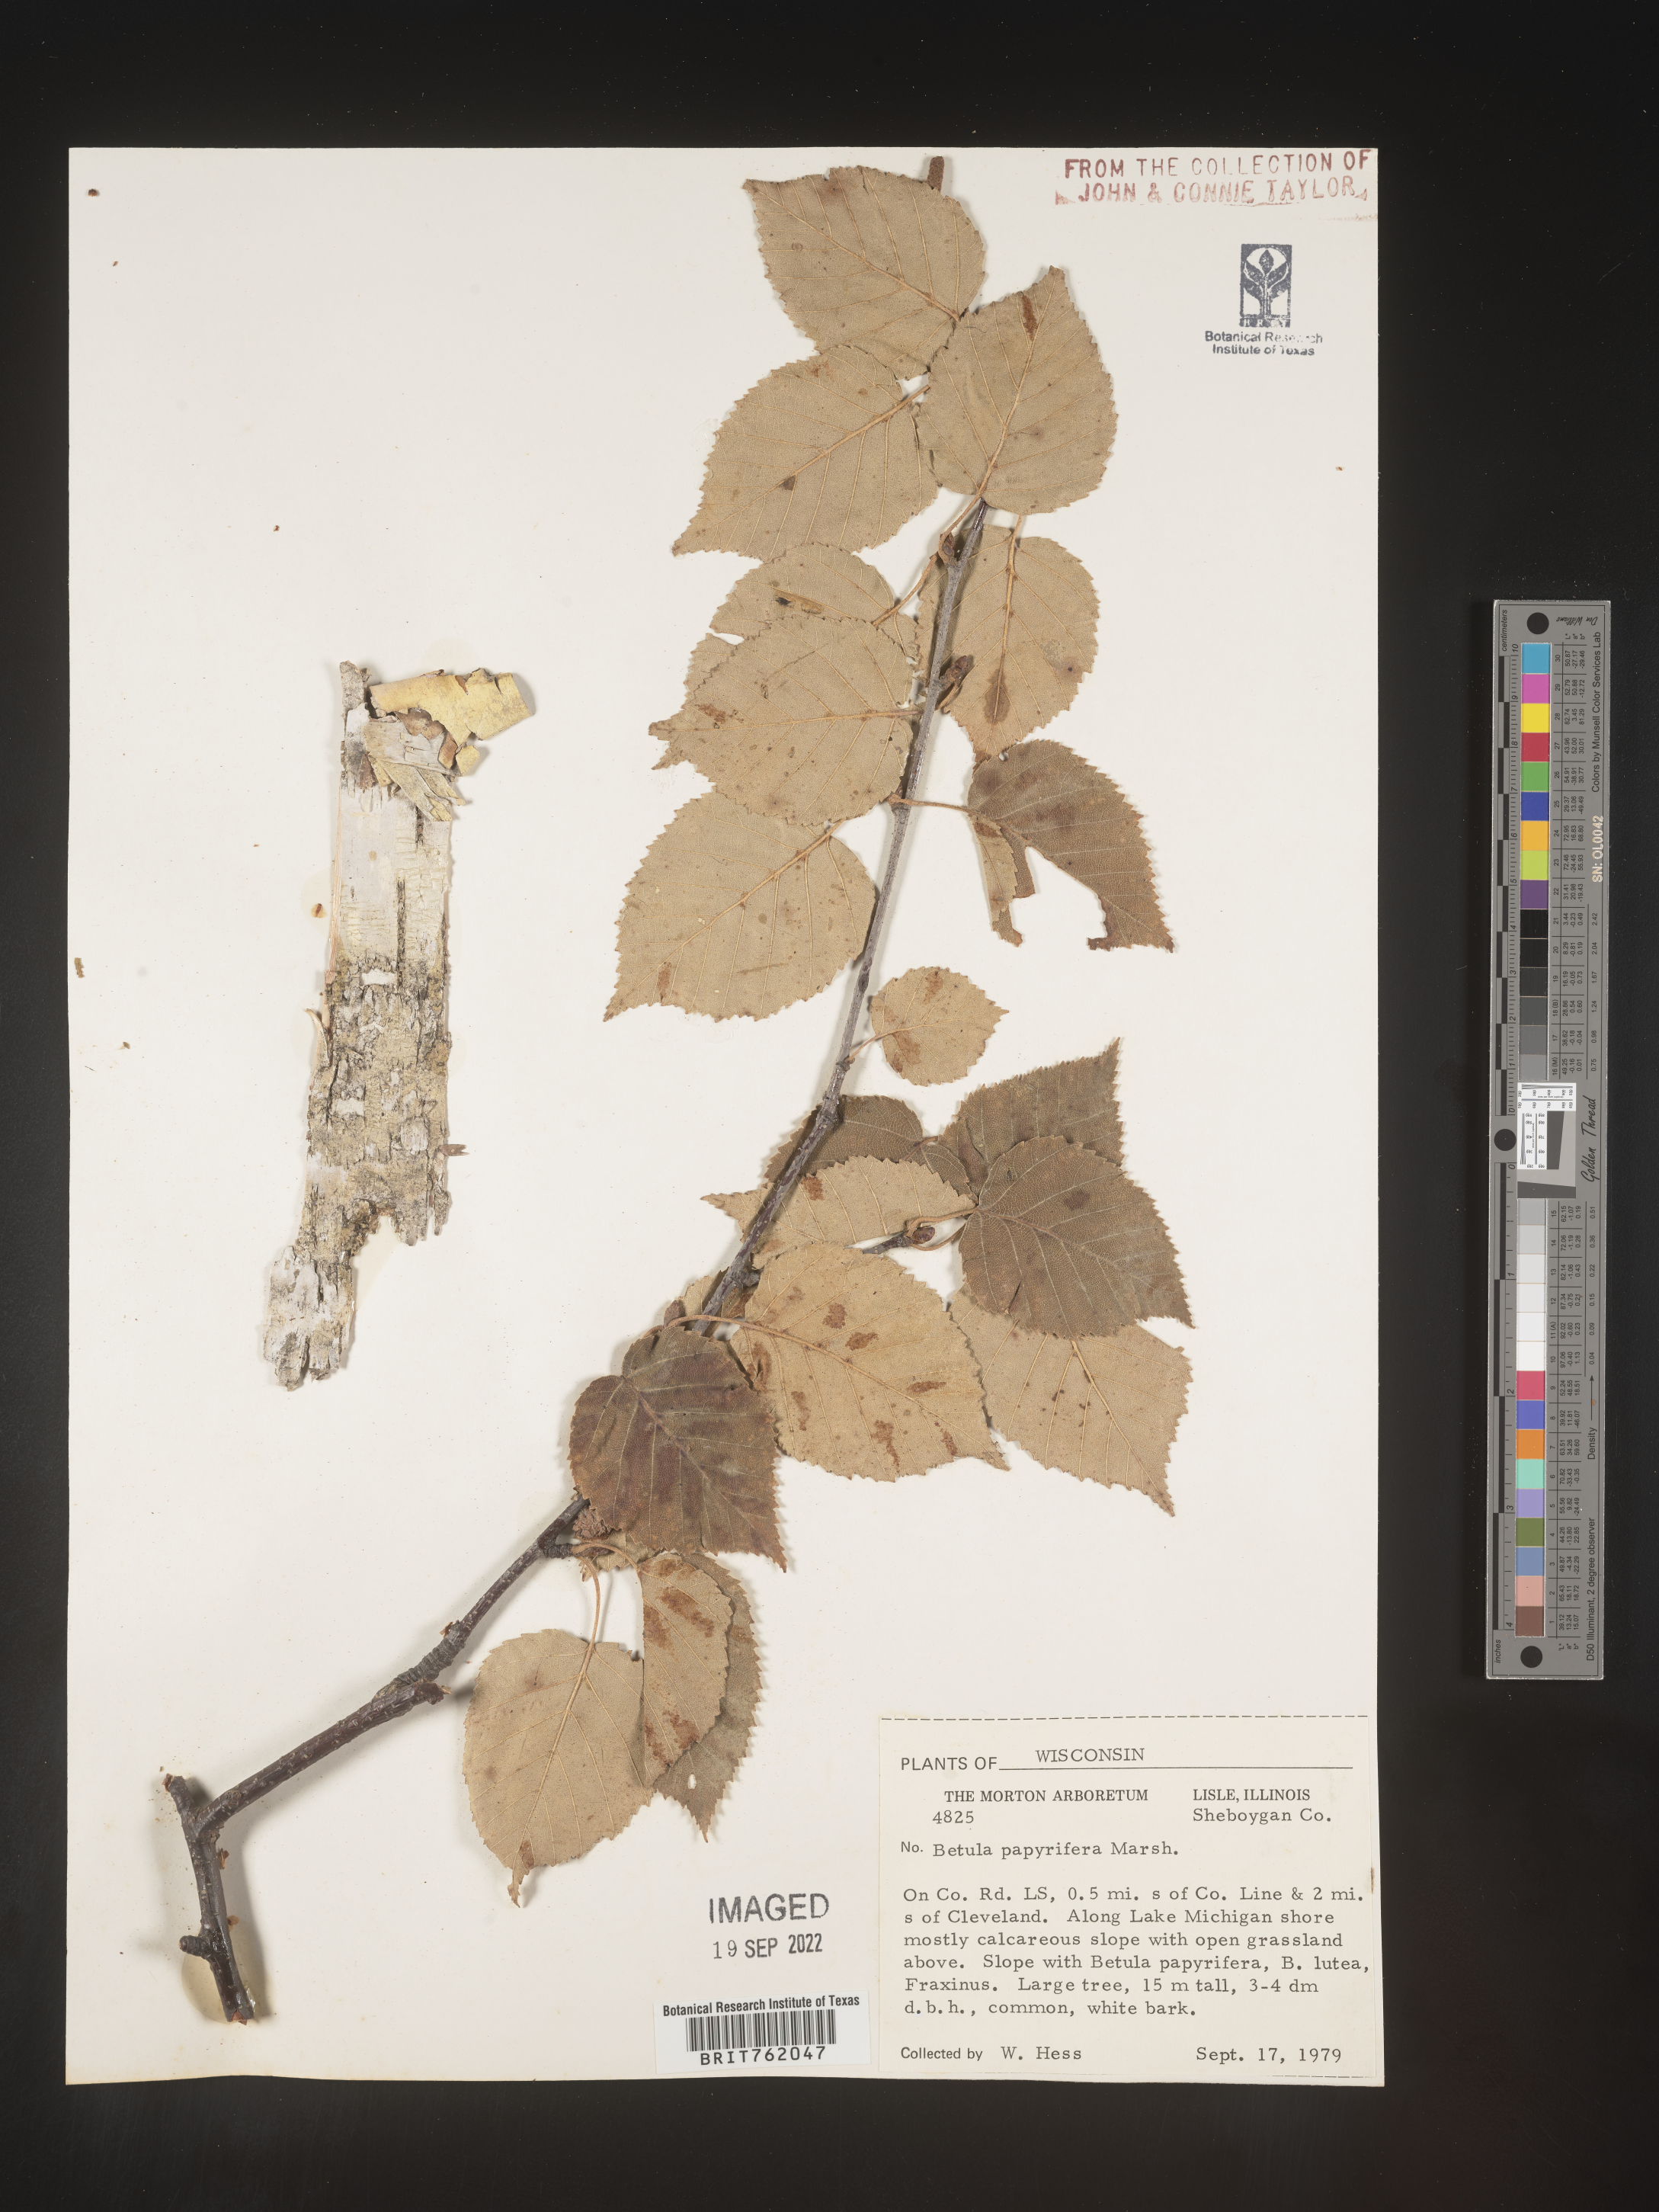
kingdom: Plantae
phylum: Tracheophyta
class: Magnoliopsida
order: Fagales
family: Betulaceae
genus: Betula
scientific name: Betula papyrifera
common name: Paper birch
